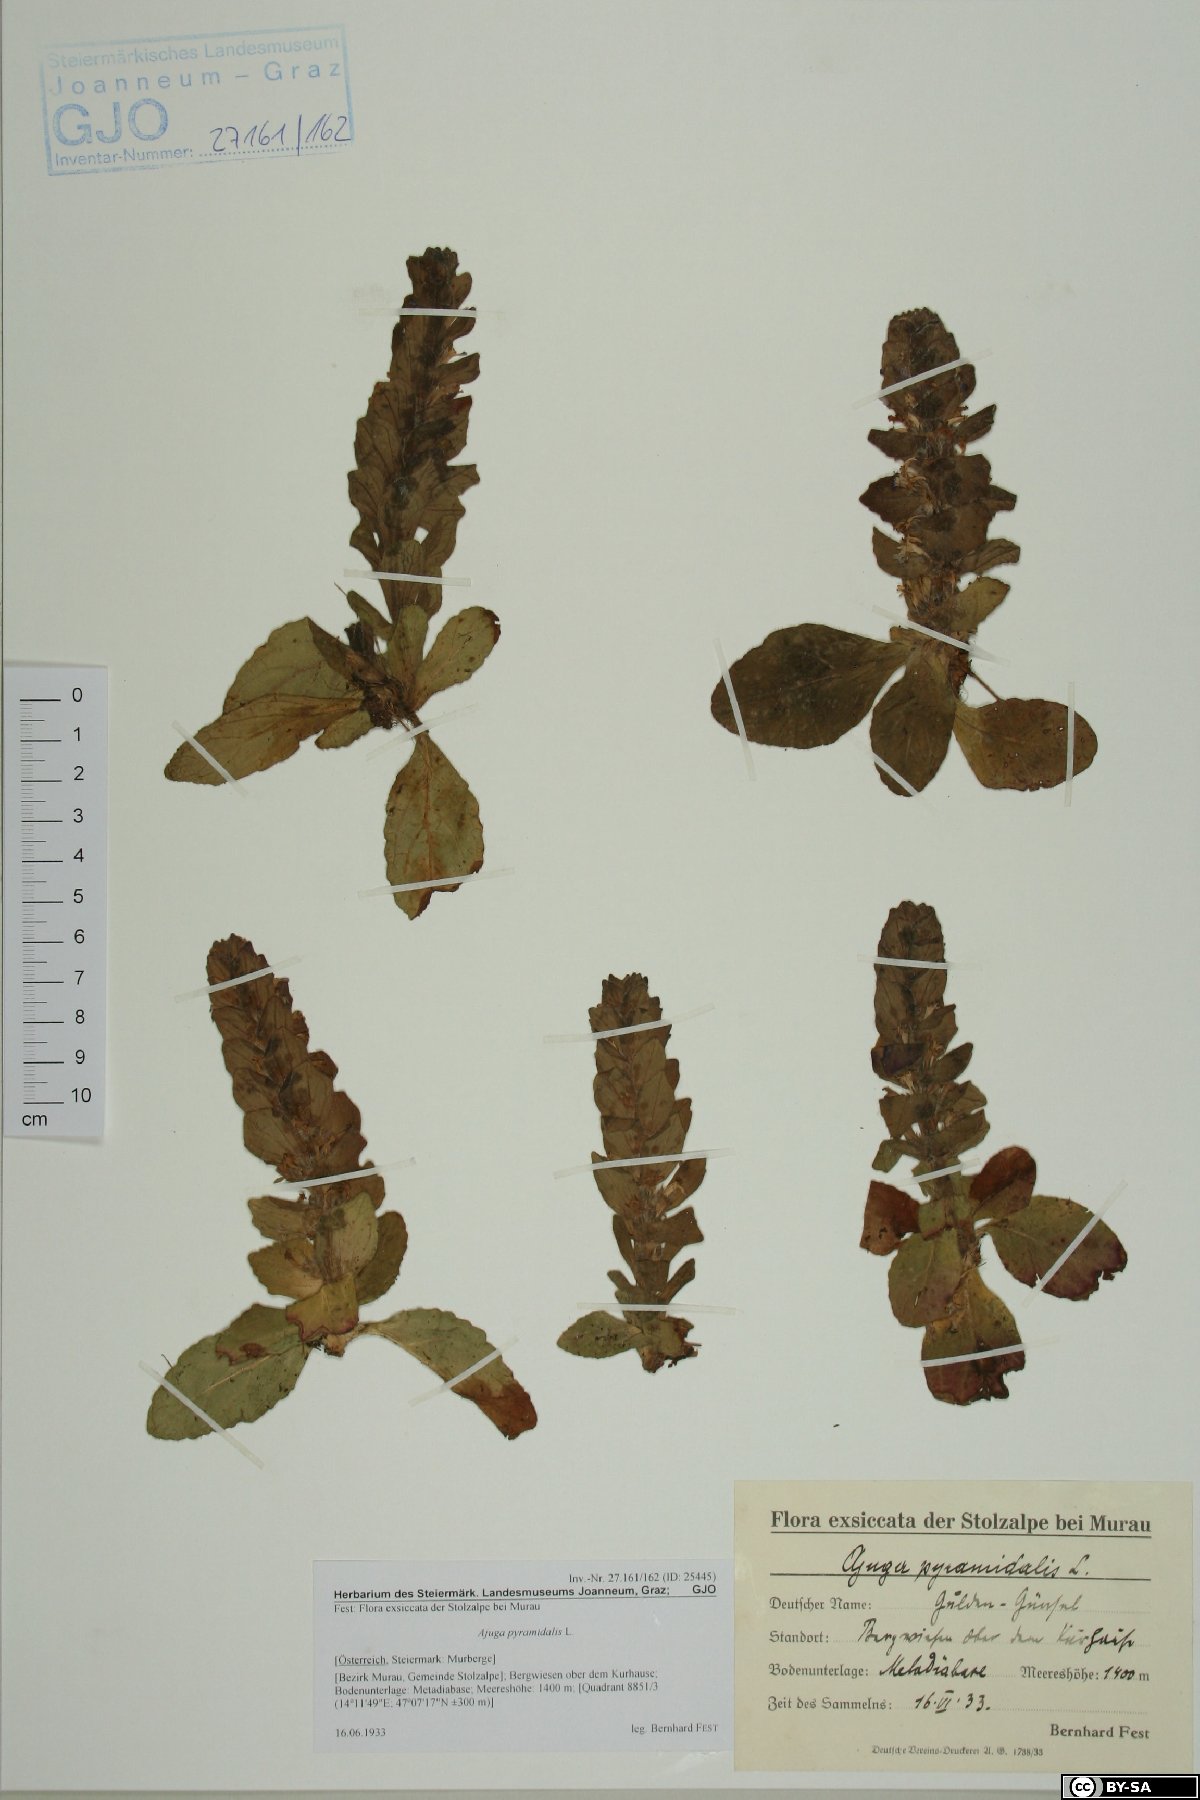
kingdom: Plantae
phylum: Tracheophyta
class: Magnoliopsida
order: Lamiales
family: Lamiaceae
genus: Ajuga
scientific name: Ajuga pyramidalis
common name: Pyramid bugle
